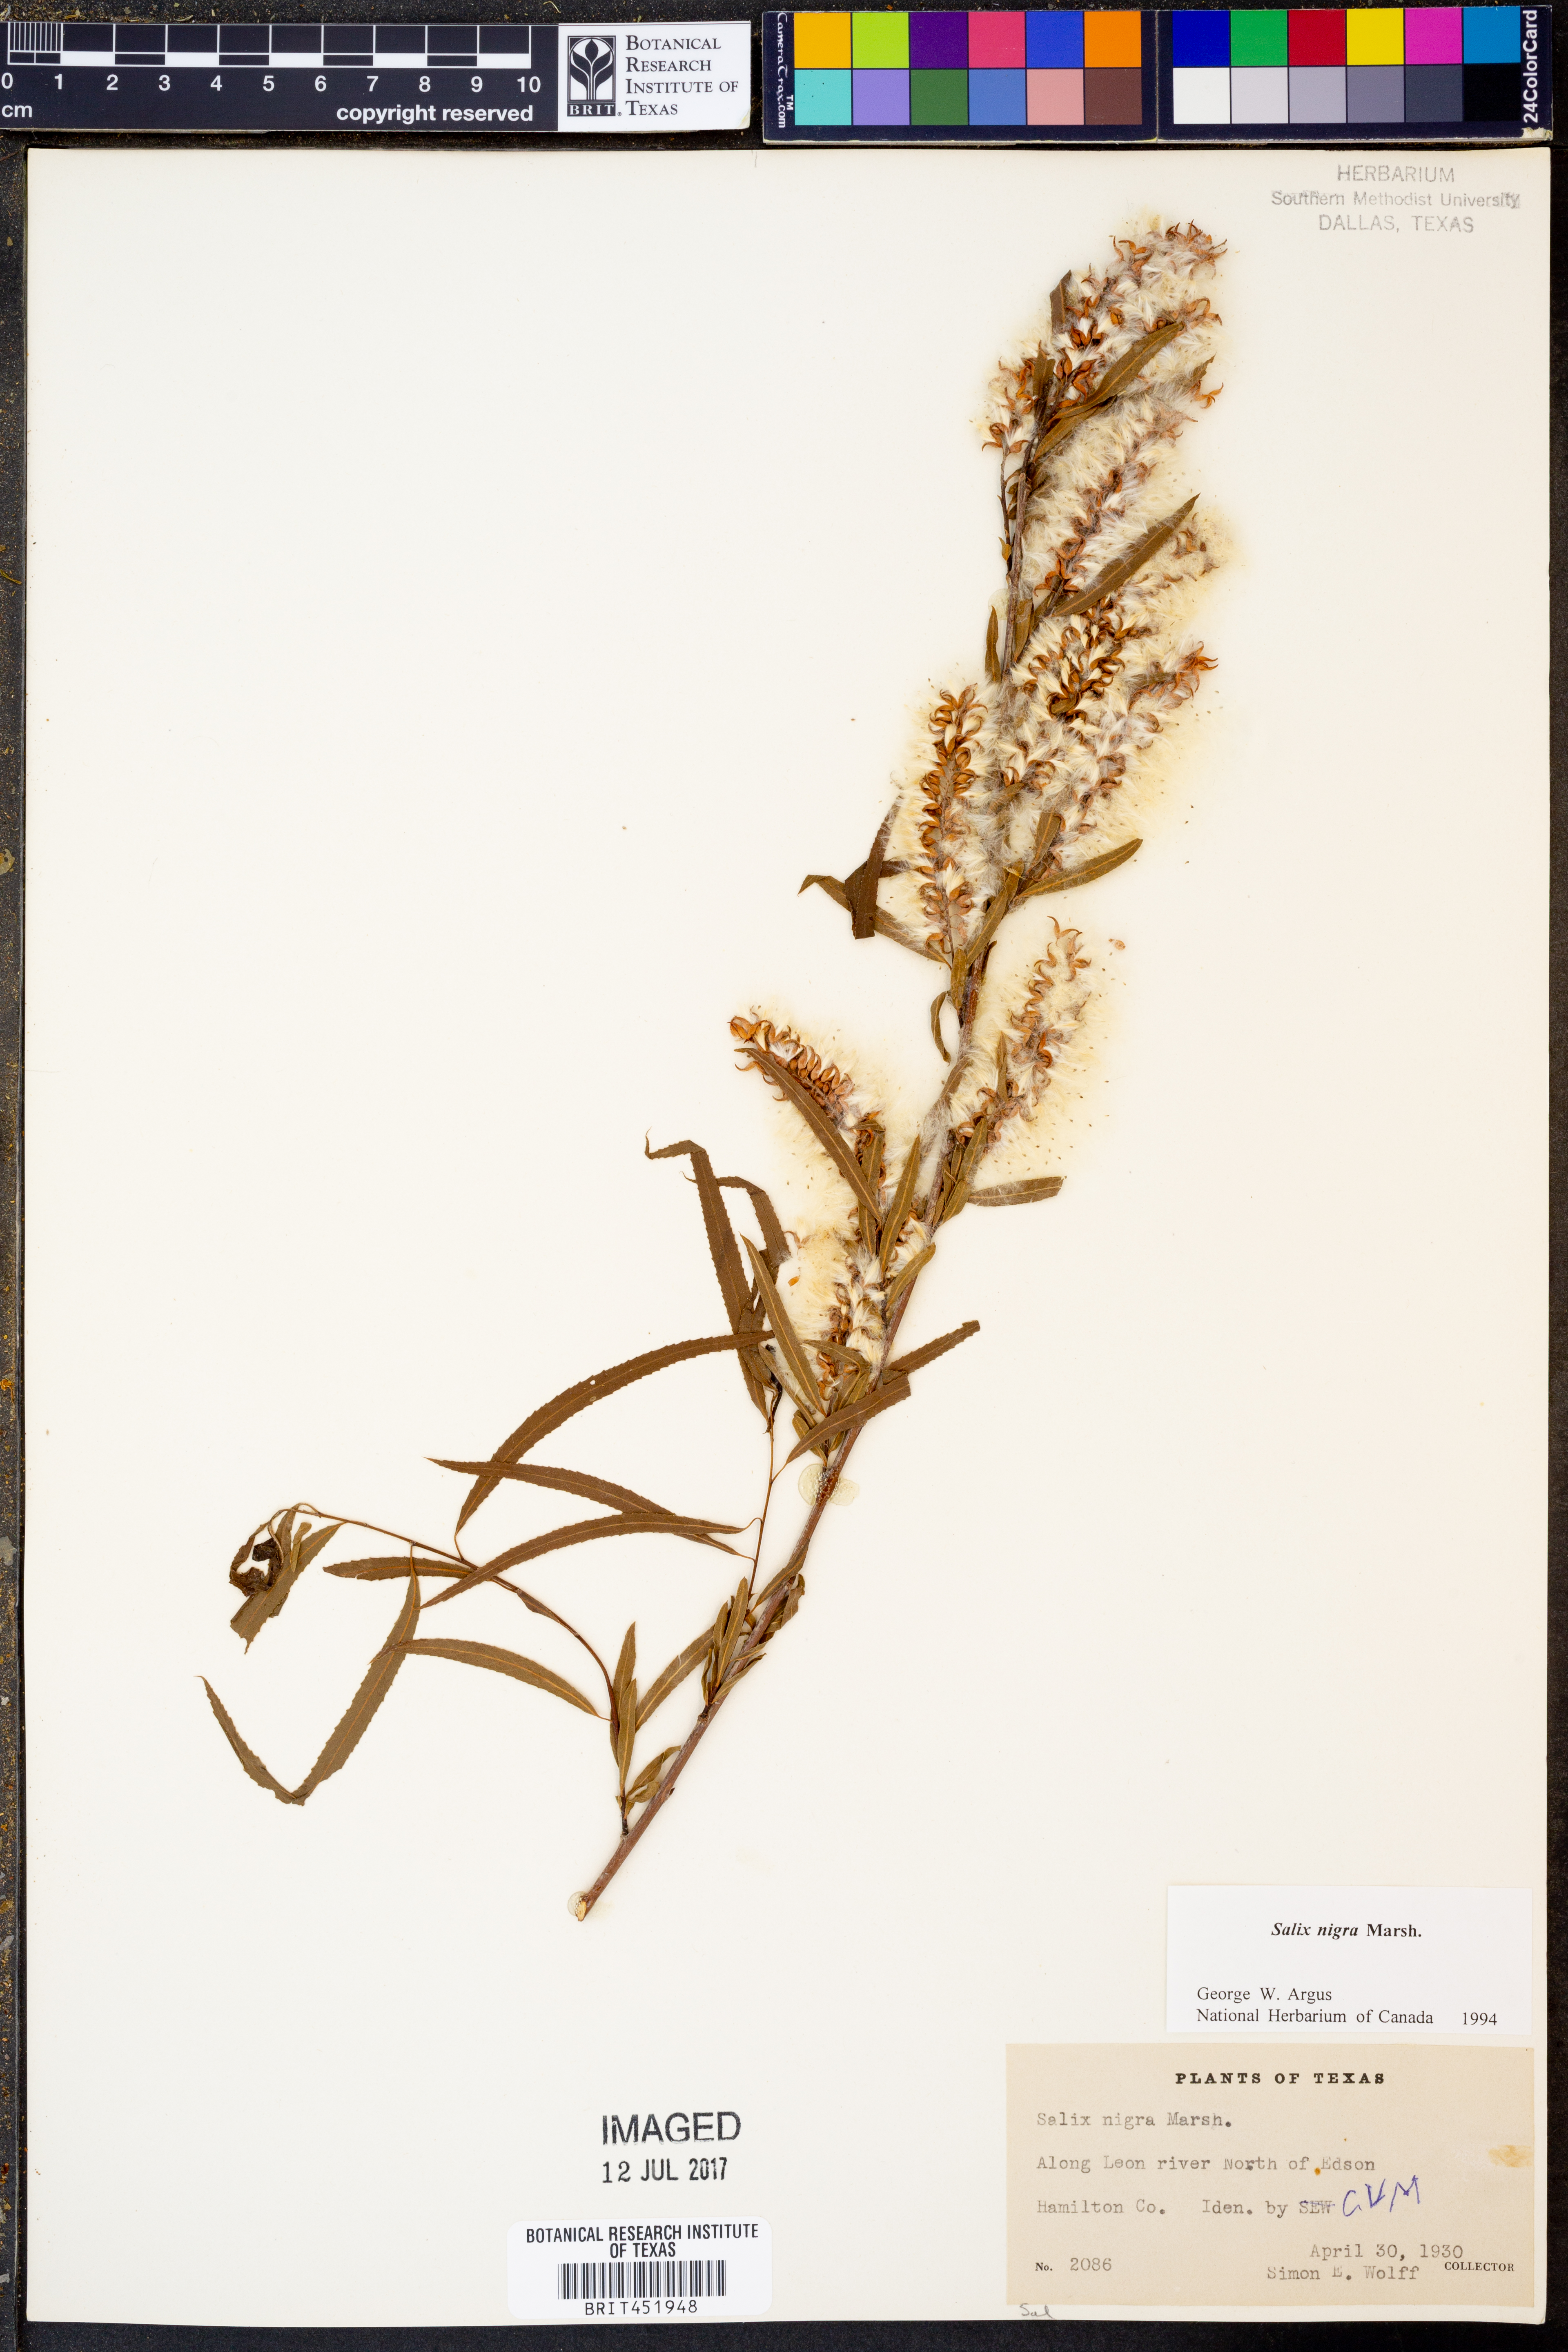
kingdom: Plantae
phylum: Tracheophyta
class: Magnoliopsida
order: Malpighiales
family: Salicaceae
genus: Salix
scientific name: Salix nigra
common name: Black willow
